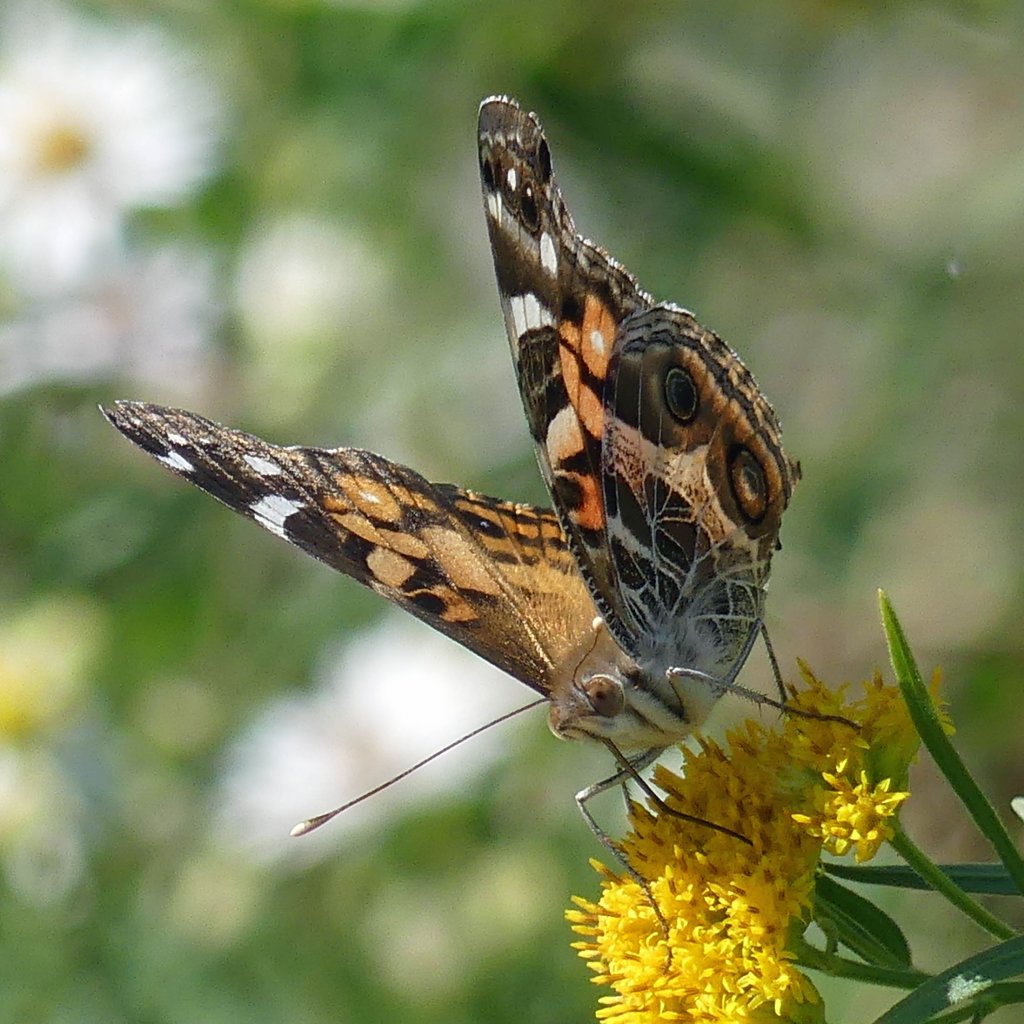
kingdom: Animalia
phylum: Arthropoda
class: Insecta
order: Lepidoptera
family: Nymphalidae
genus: Vanessa
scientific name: Vanessa virginiensis
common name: American Lady
